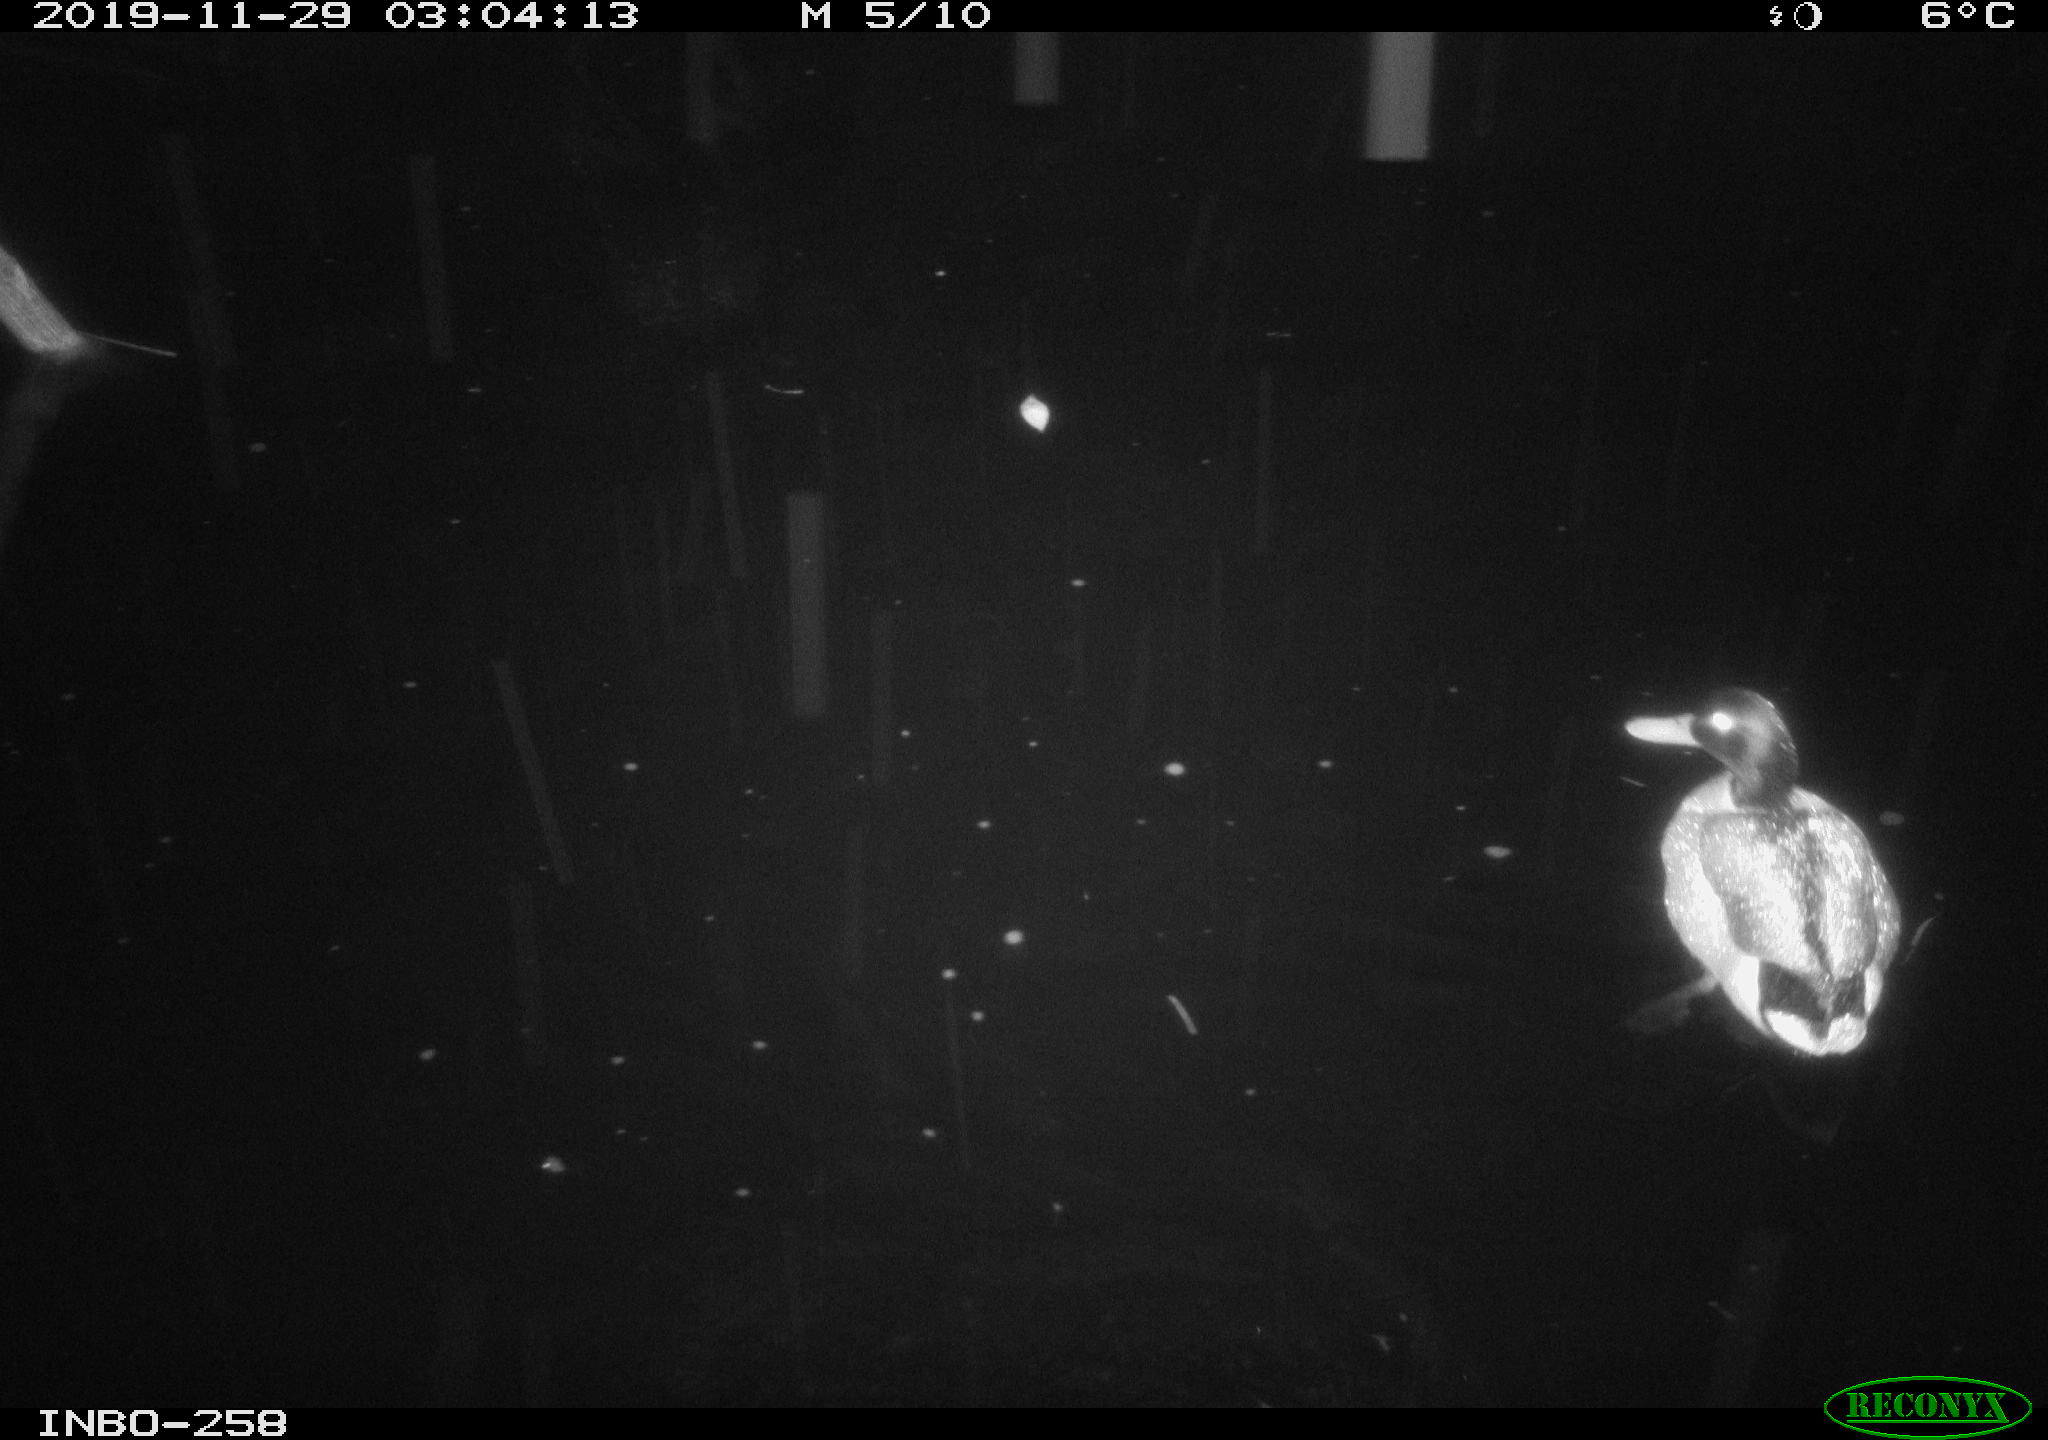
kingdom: Animalia
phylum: Chordata
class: Aves
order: Anseriformes
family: Anatidae
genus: Anas
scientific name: Anas platyrhynchos
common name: Mallard
